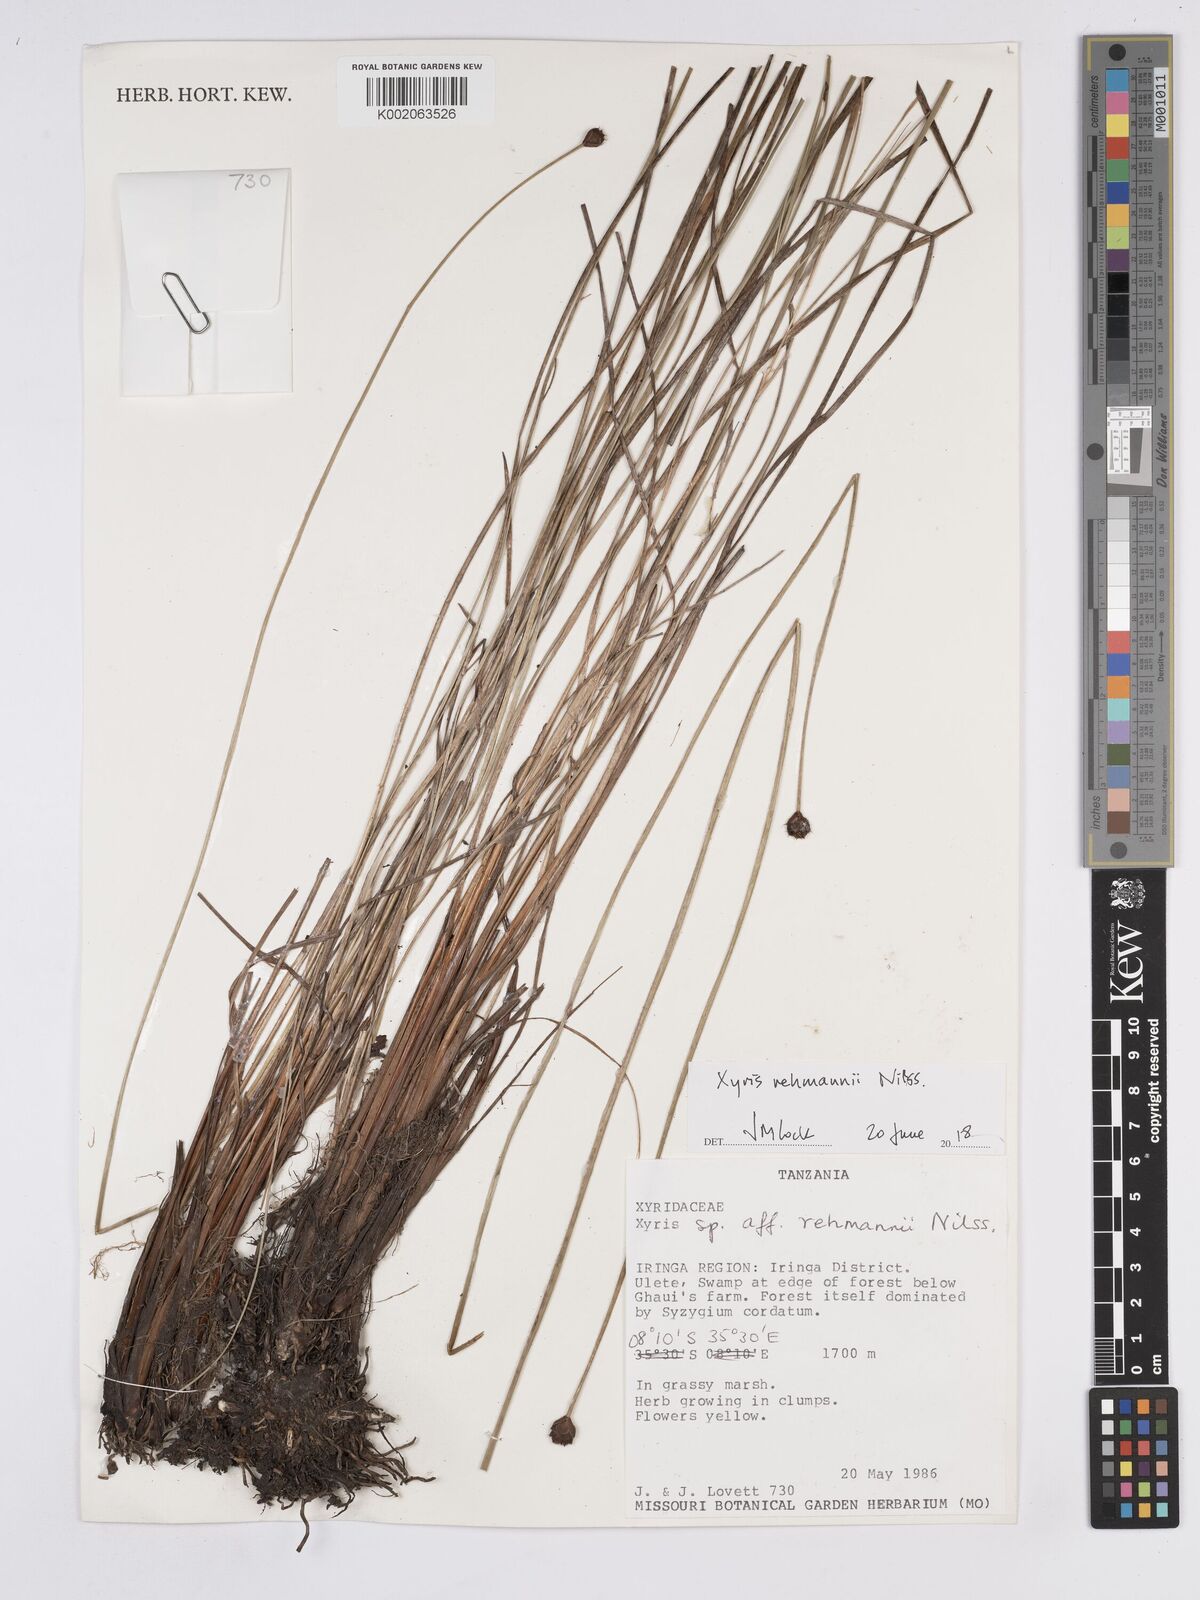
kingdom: Plantae
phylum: Tracheophyta
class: Liliopsida
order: Poales
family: Xyridaceae
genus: Xyris
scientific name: Xyris rehmannii
